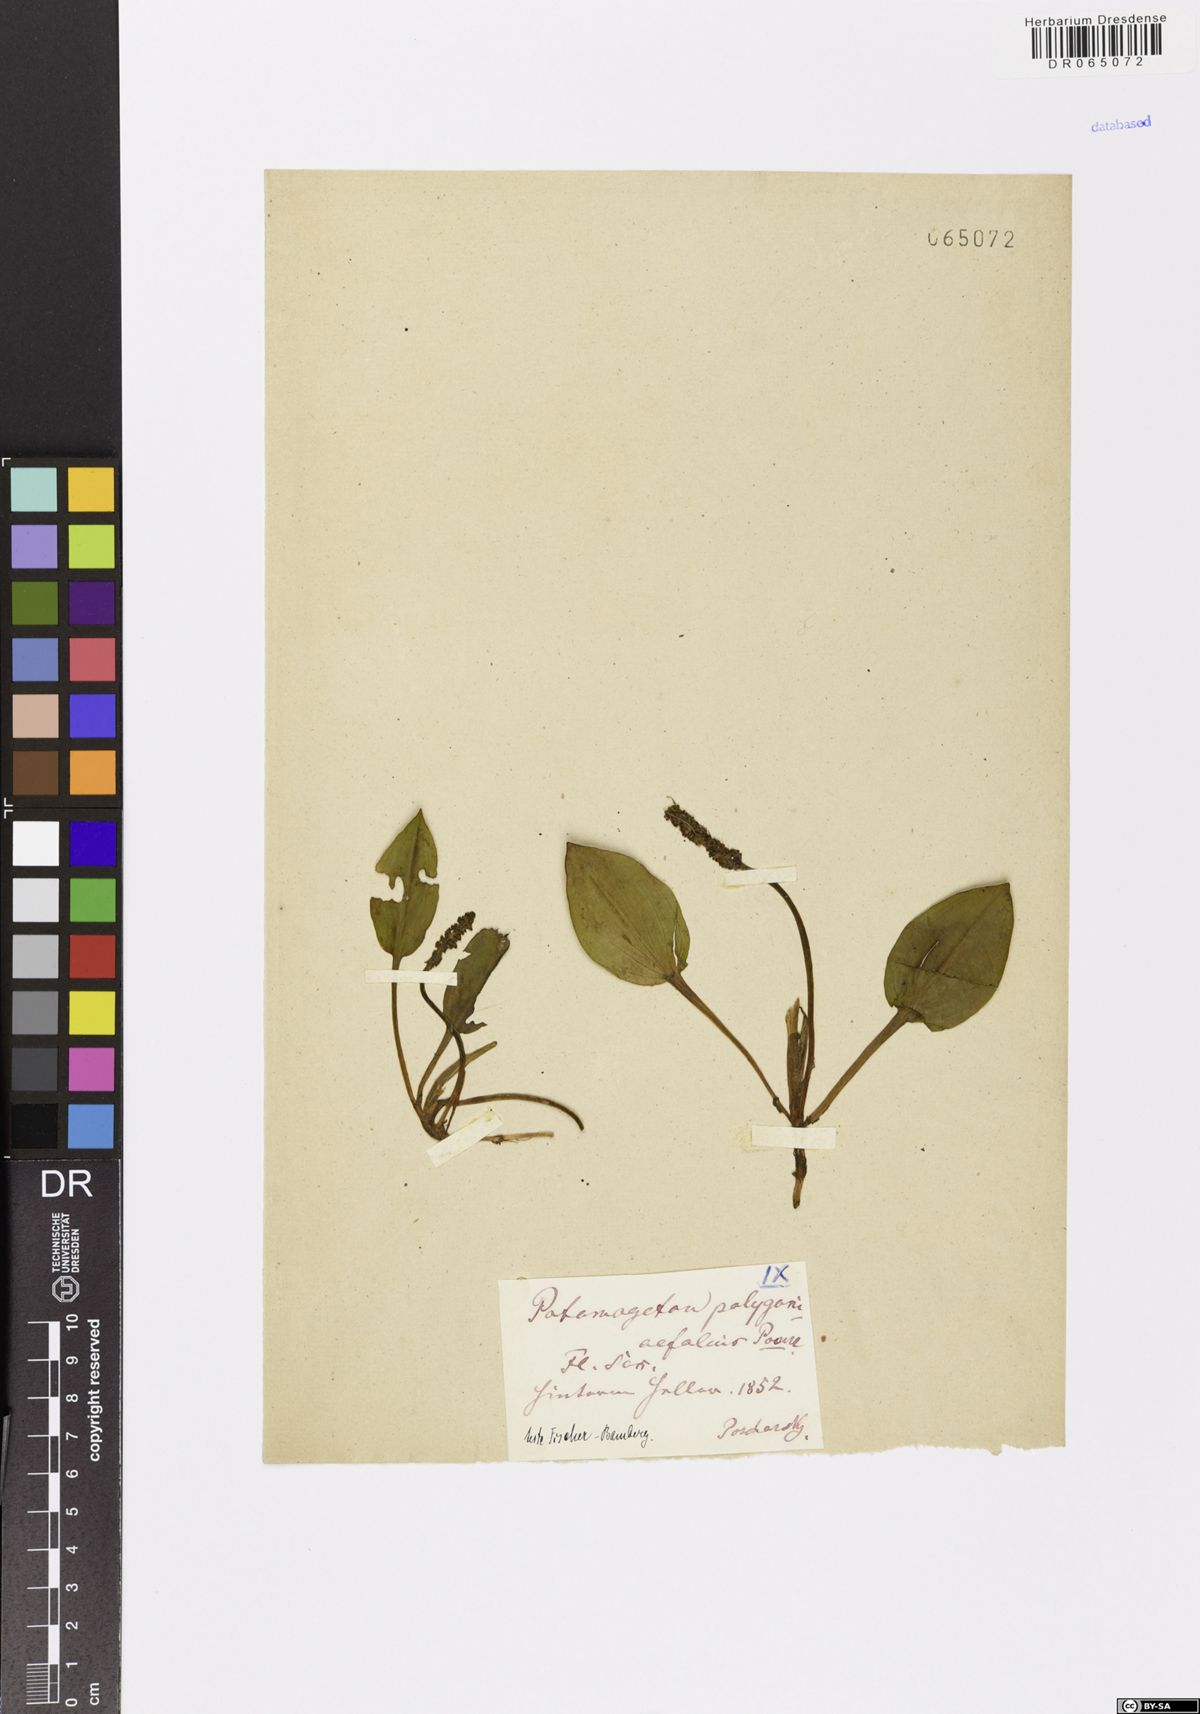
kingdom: Plantae
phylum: Tracheophyta
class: Liliopsida
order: Alismatales
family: Potamogetonaceae
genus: Potamogeton
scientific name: Potamogeton polygonifolius
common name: Bog pondweed
